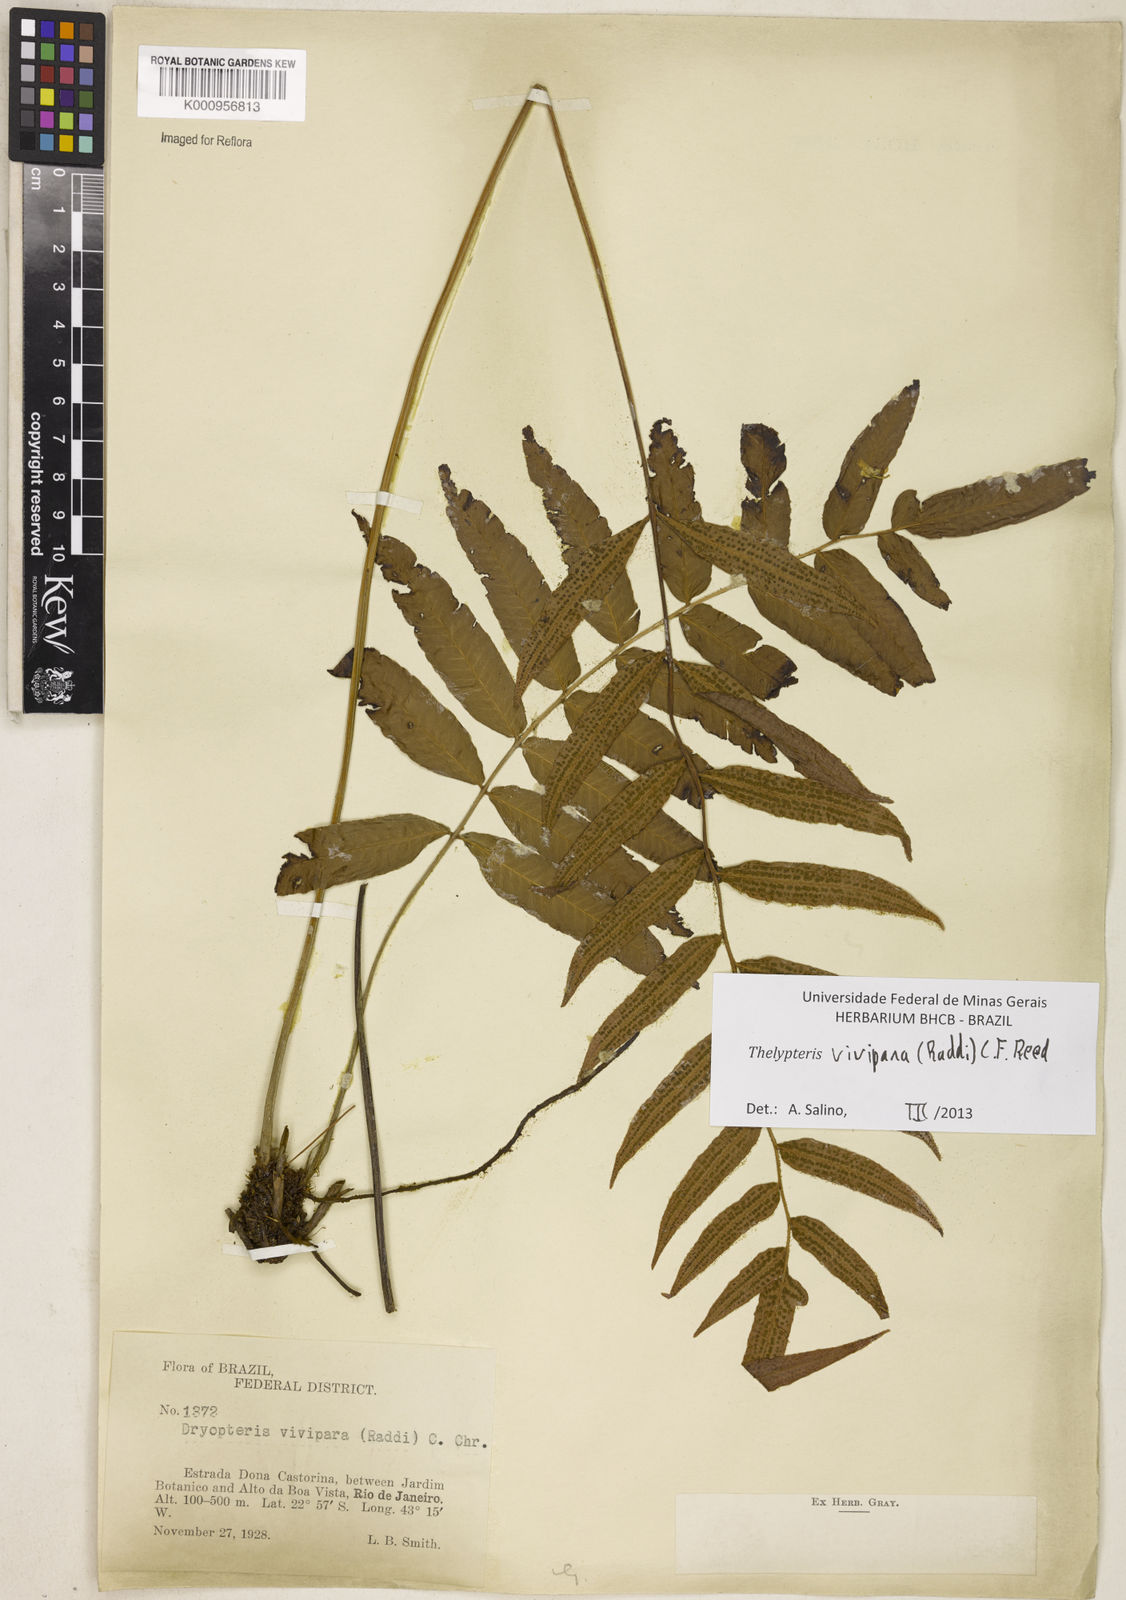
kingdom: Plantae
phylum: Tracheophyta
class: Polypodiopsida
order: Polypodiales
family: Thelypteridaceae
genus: Goniopteris
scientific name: Goniopteris vivipara
